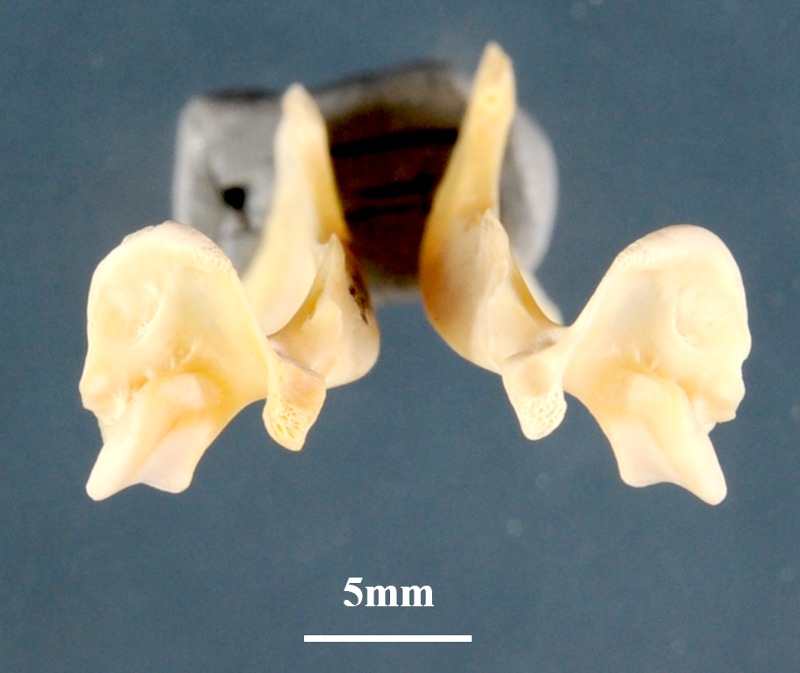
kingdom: Animalia
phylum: Chordata
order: Perciformes
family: Sciaenidae
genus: Sciaena
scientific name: Sciaena umbra
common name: Brown meagre
